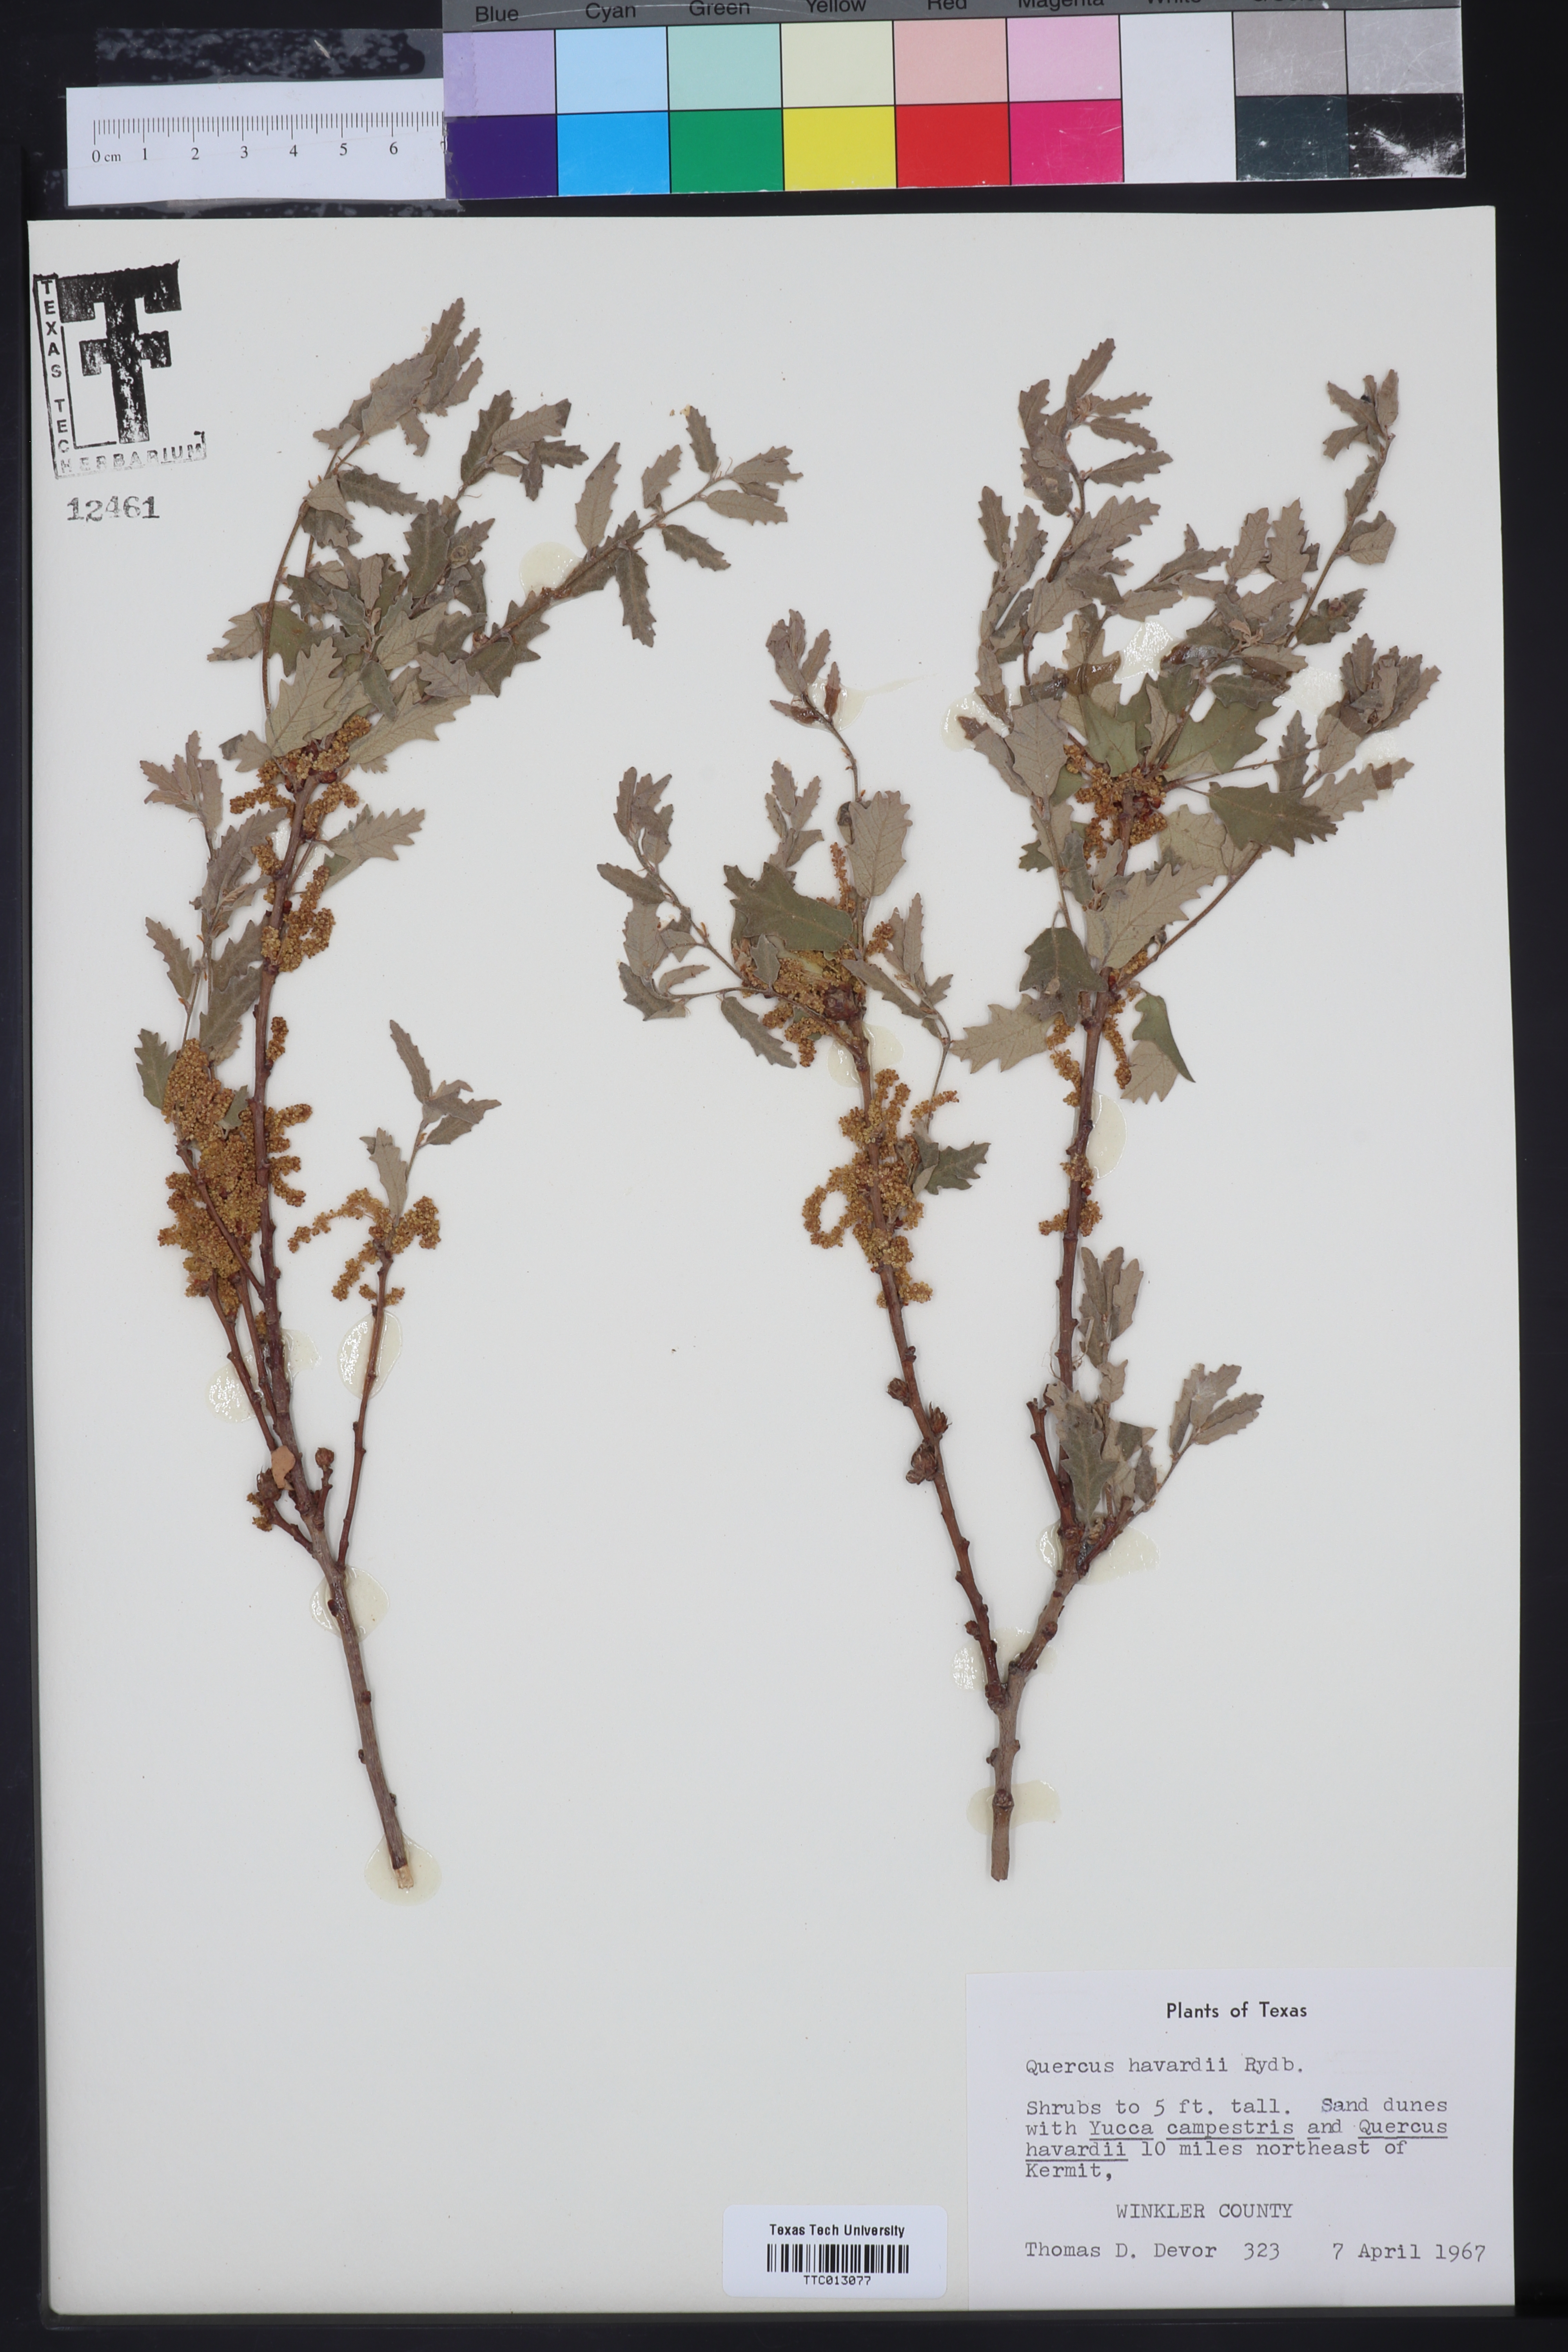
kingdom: Plantae
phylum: Tracheophyta
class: Magnoliopsida
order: Fagales
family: Fagaceae
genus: Quercus
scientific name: Quercus havardii
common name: Shinnery oak
